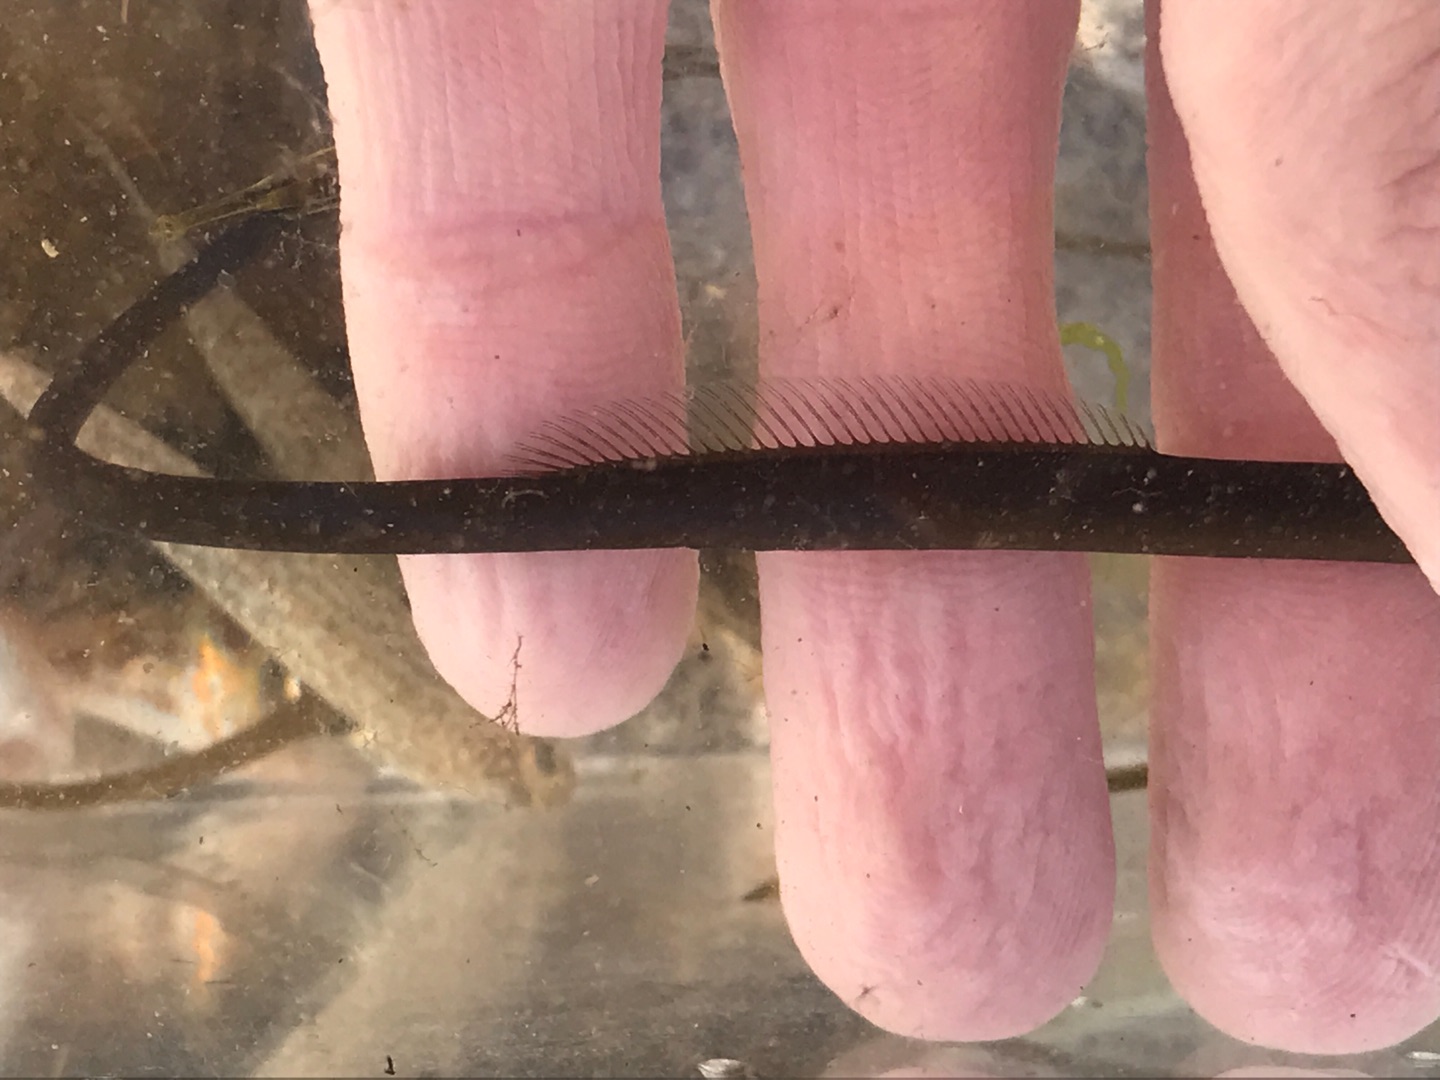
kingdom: Animalia
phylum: Chordata
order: Syngnathiformes
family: Syngnathidae
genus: Entelurus
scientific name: Entelurus aequoreus
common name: Snippe
